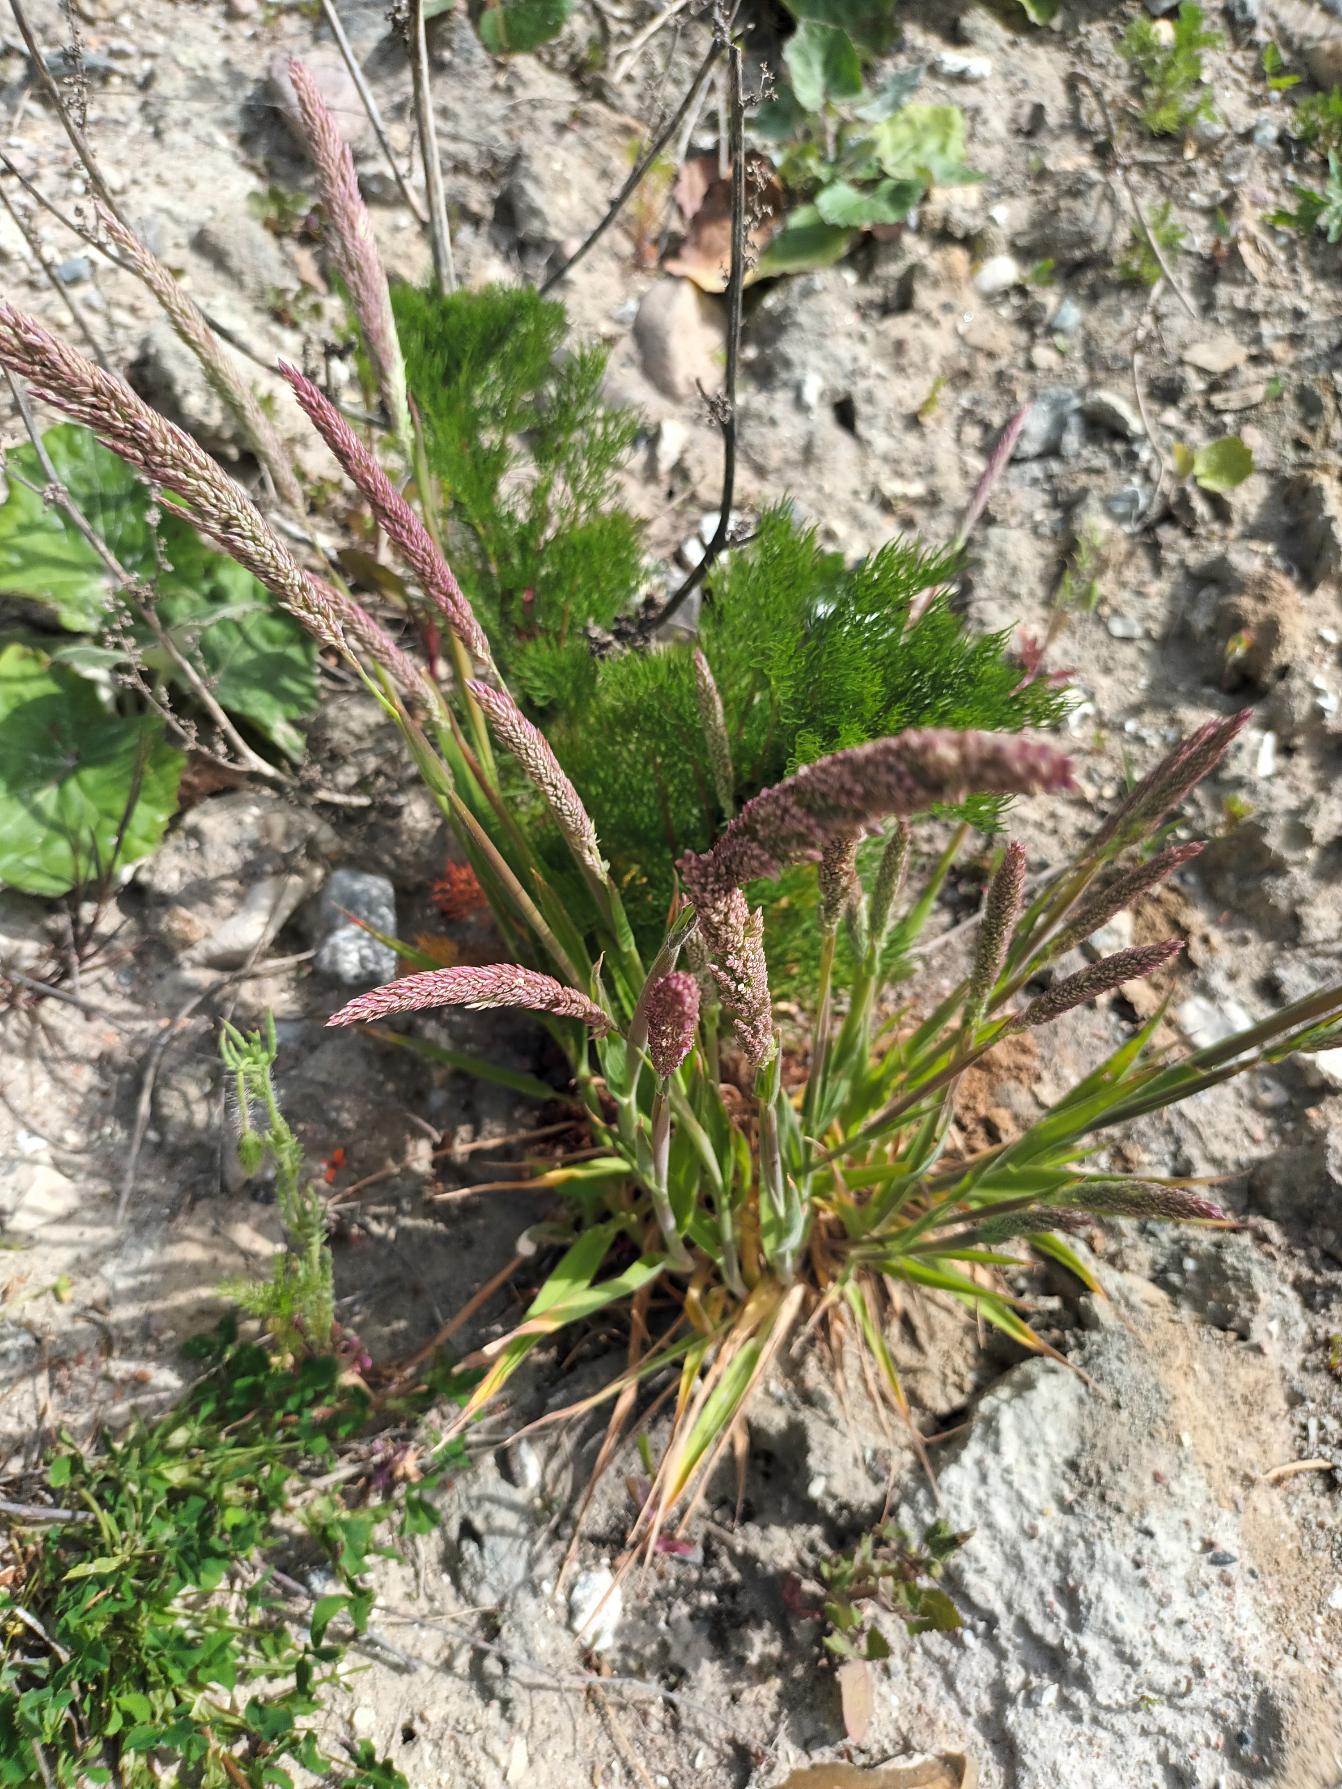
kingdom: Plantae
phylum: Tracheophyta
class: Liliopsida
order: Poales
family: Poaceae
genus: Holcus
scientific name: Holcus lanatus
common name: Fløjlsgræs
